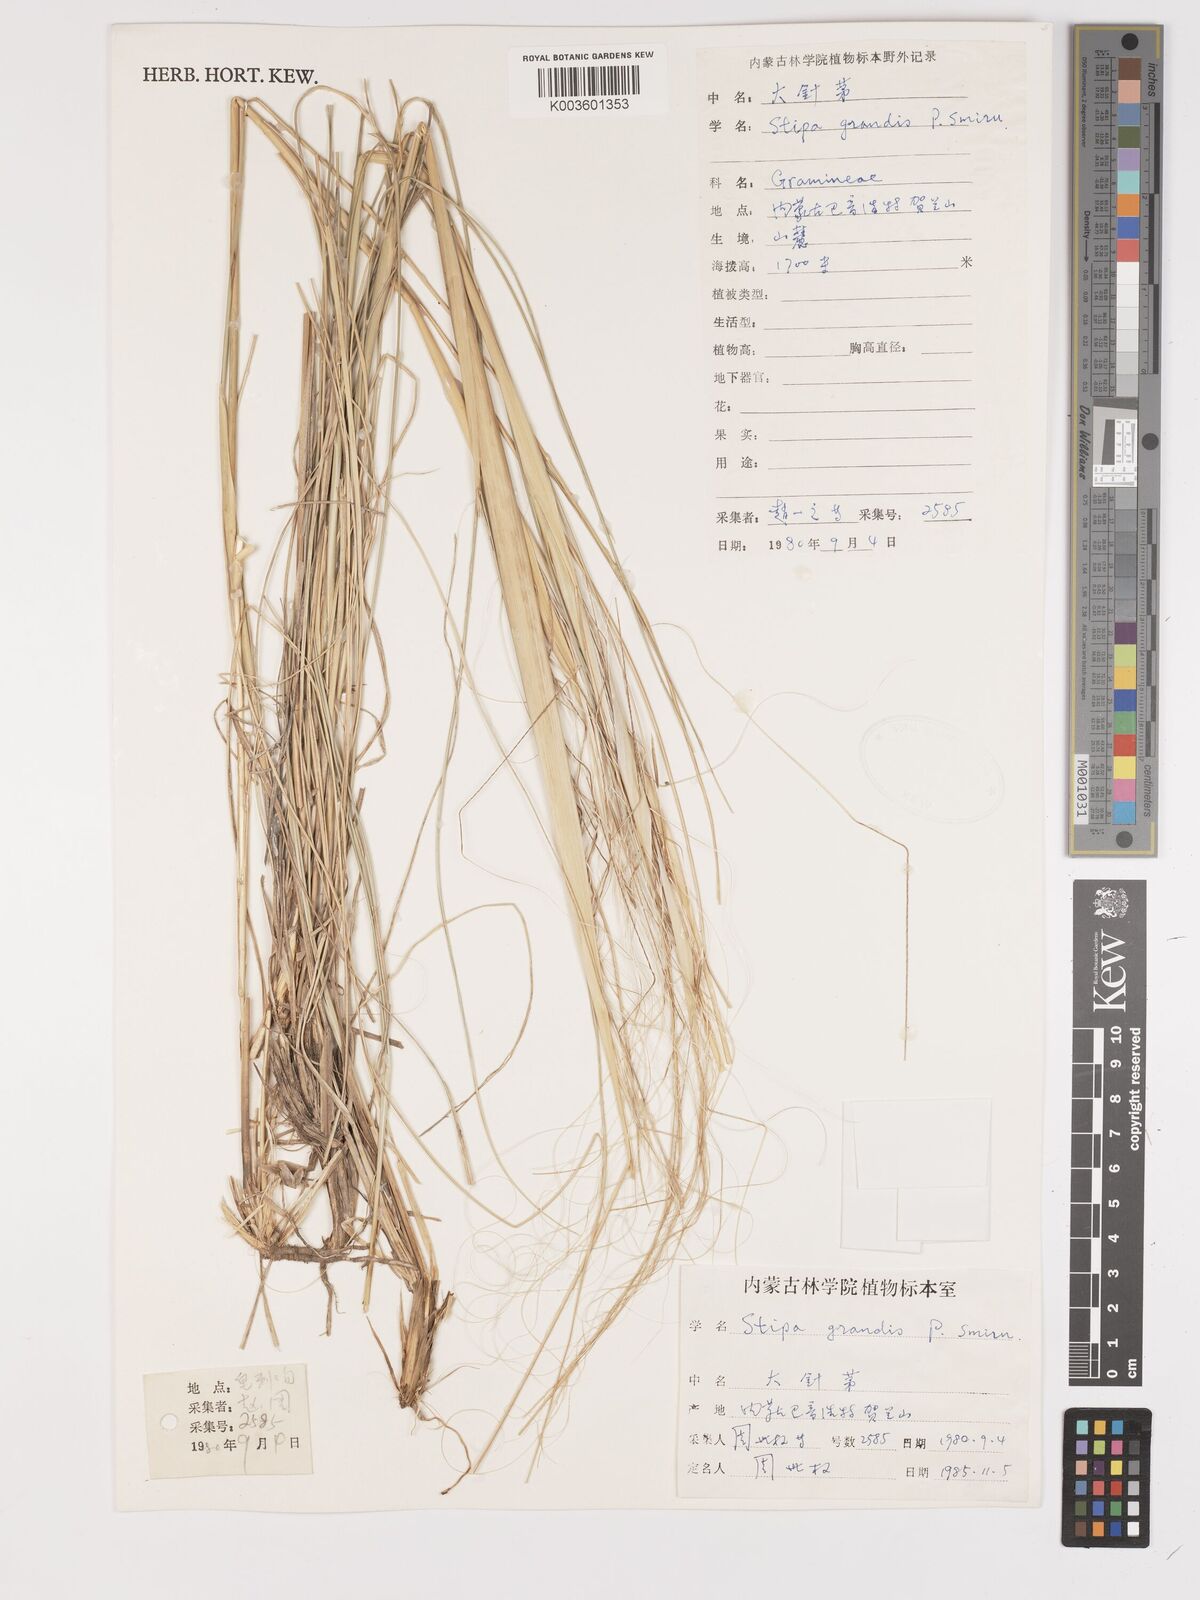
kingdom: Plantae
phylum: Tracheophyta
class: Liliopsida
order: Poales
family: Poaceae
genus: Stipa
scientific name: Stipa grandis
